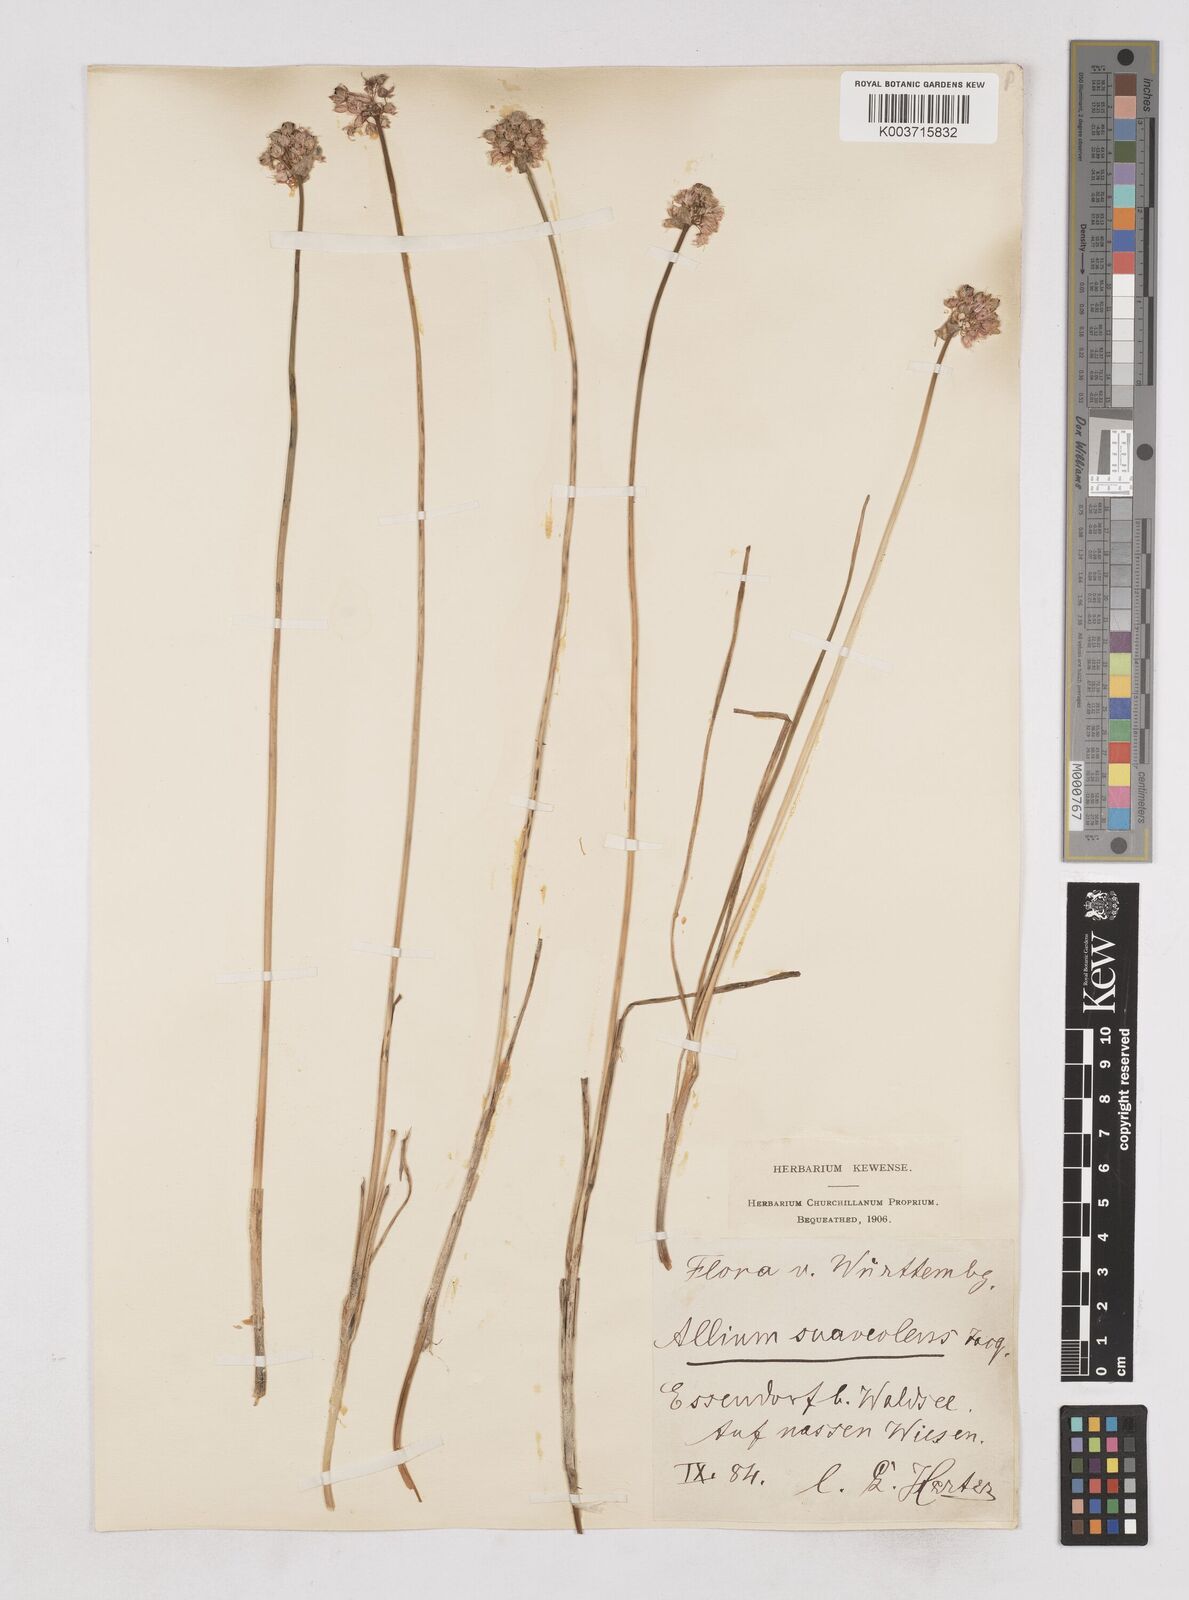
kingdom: Plantae
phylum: Tracheophyta
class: Liliopsida
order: Asparagales
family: Amaryllidaceae
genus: Allium
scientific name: Allium suaveolens
